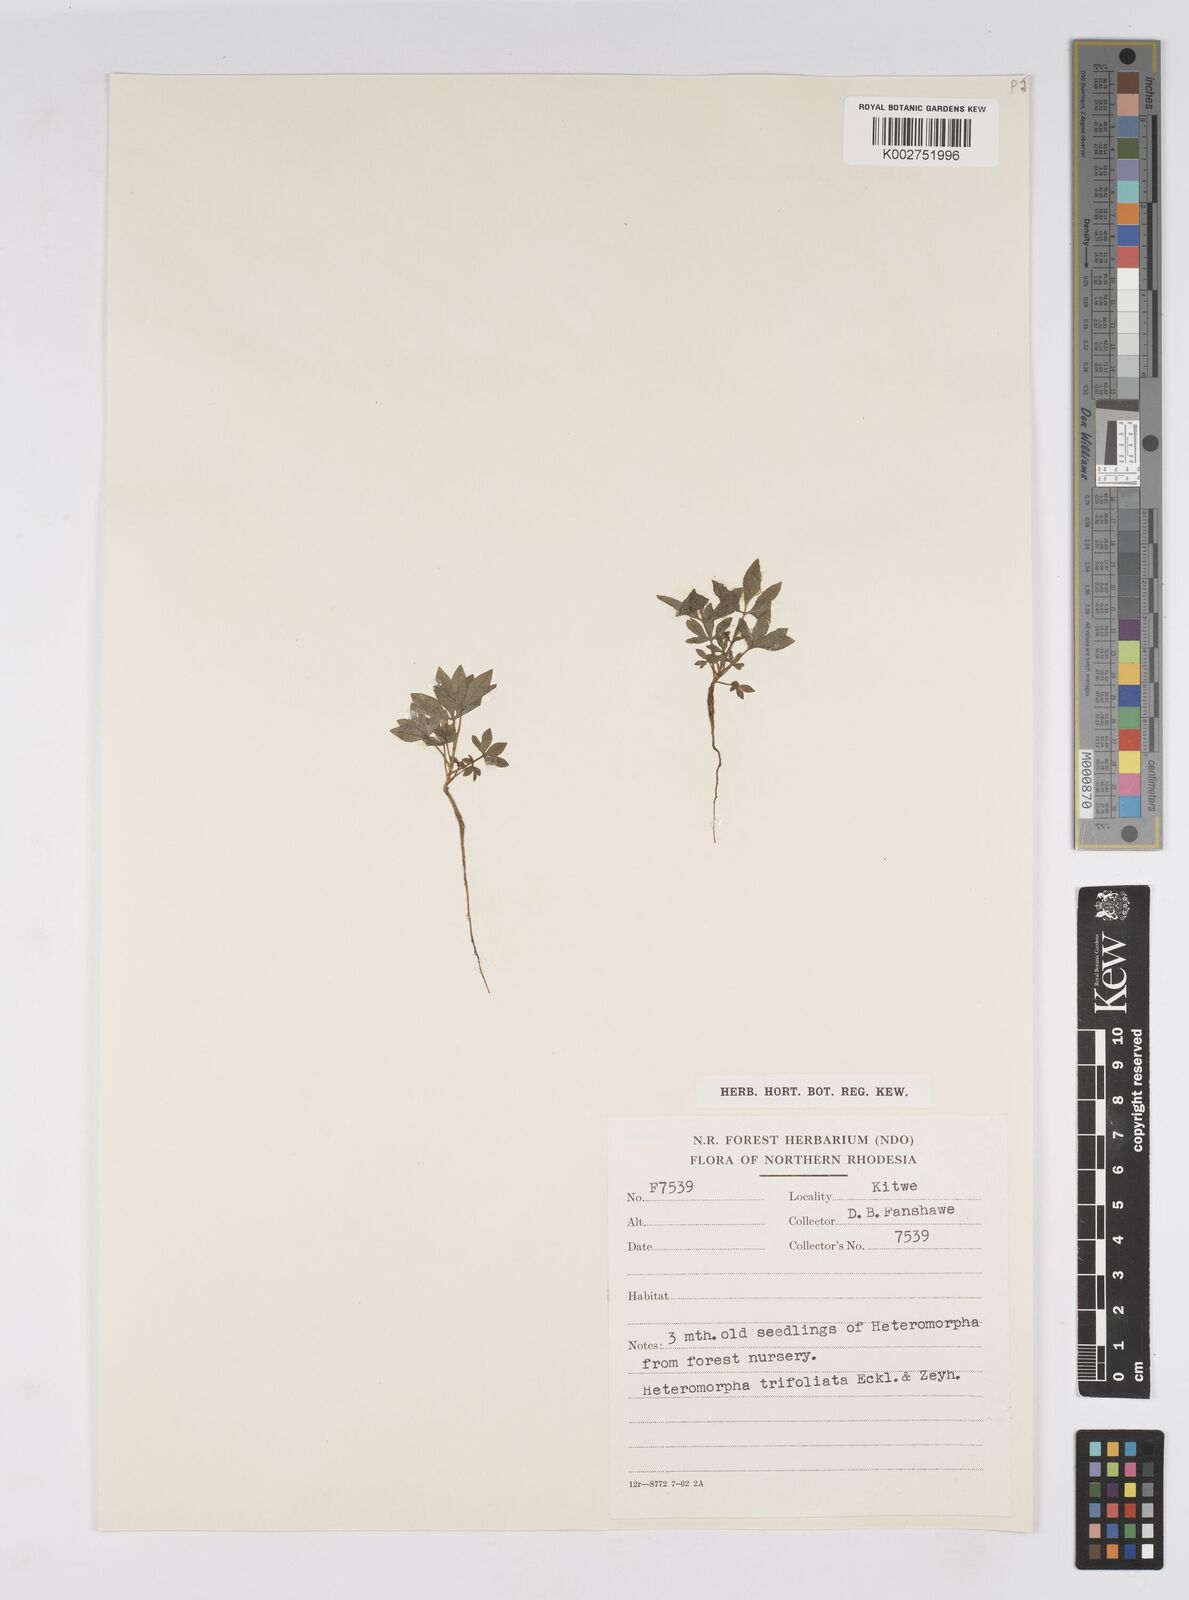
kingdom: Plantae
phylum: Tracheophyta
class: Magnoliopsida
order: Apiales
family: Apiaceae
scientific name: Apiaceae
